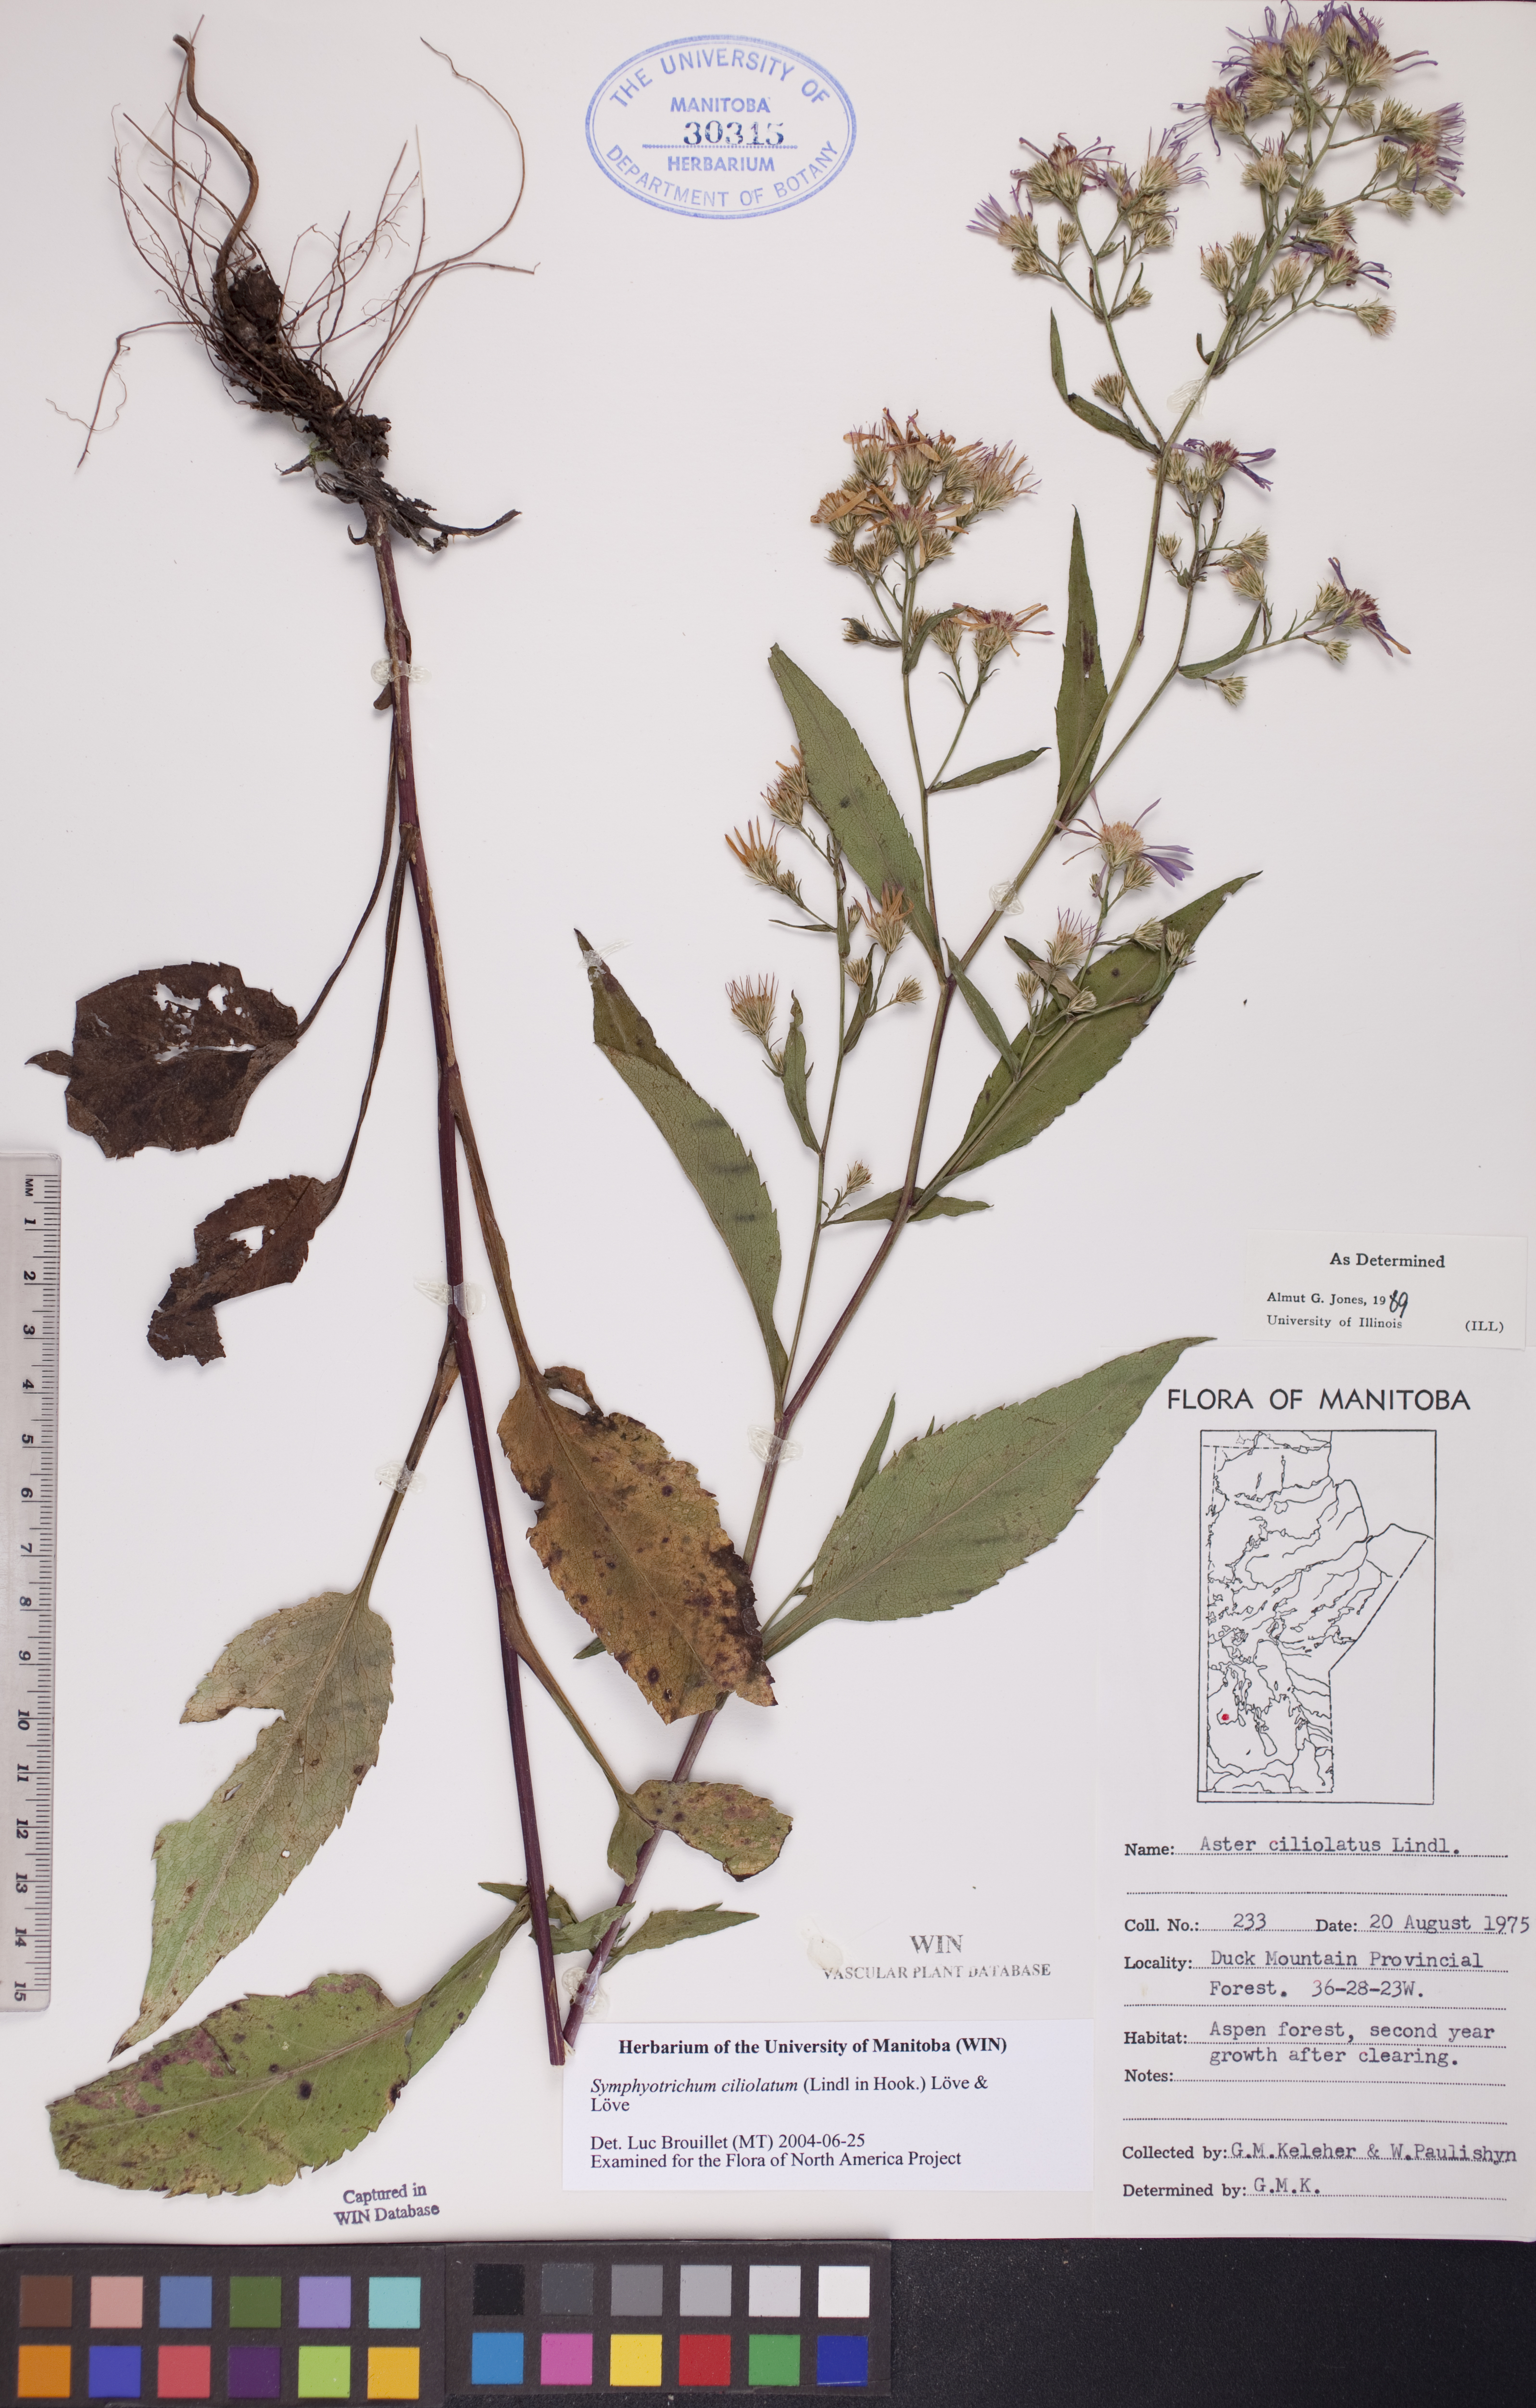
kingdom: Plantae
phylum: Tracheophyta
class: Magnoliopsida
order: Asterales
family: Asteraceae
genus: Symphyotrichum
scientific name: Symphyotrichum ciliolatum
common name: Fringed blue aster
